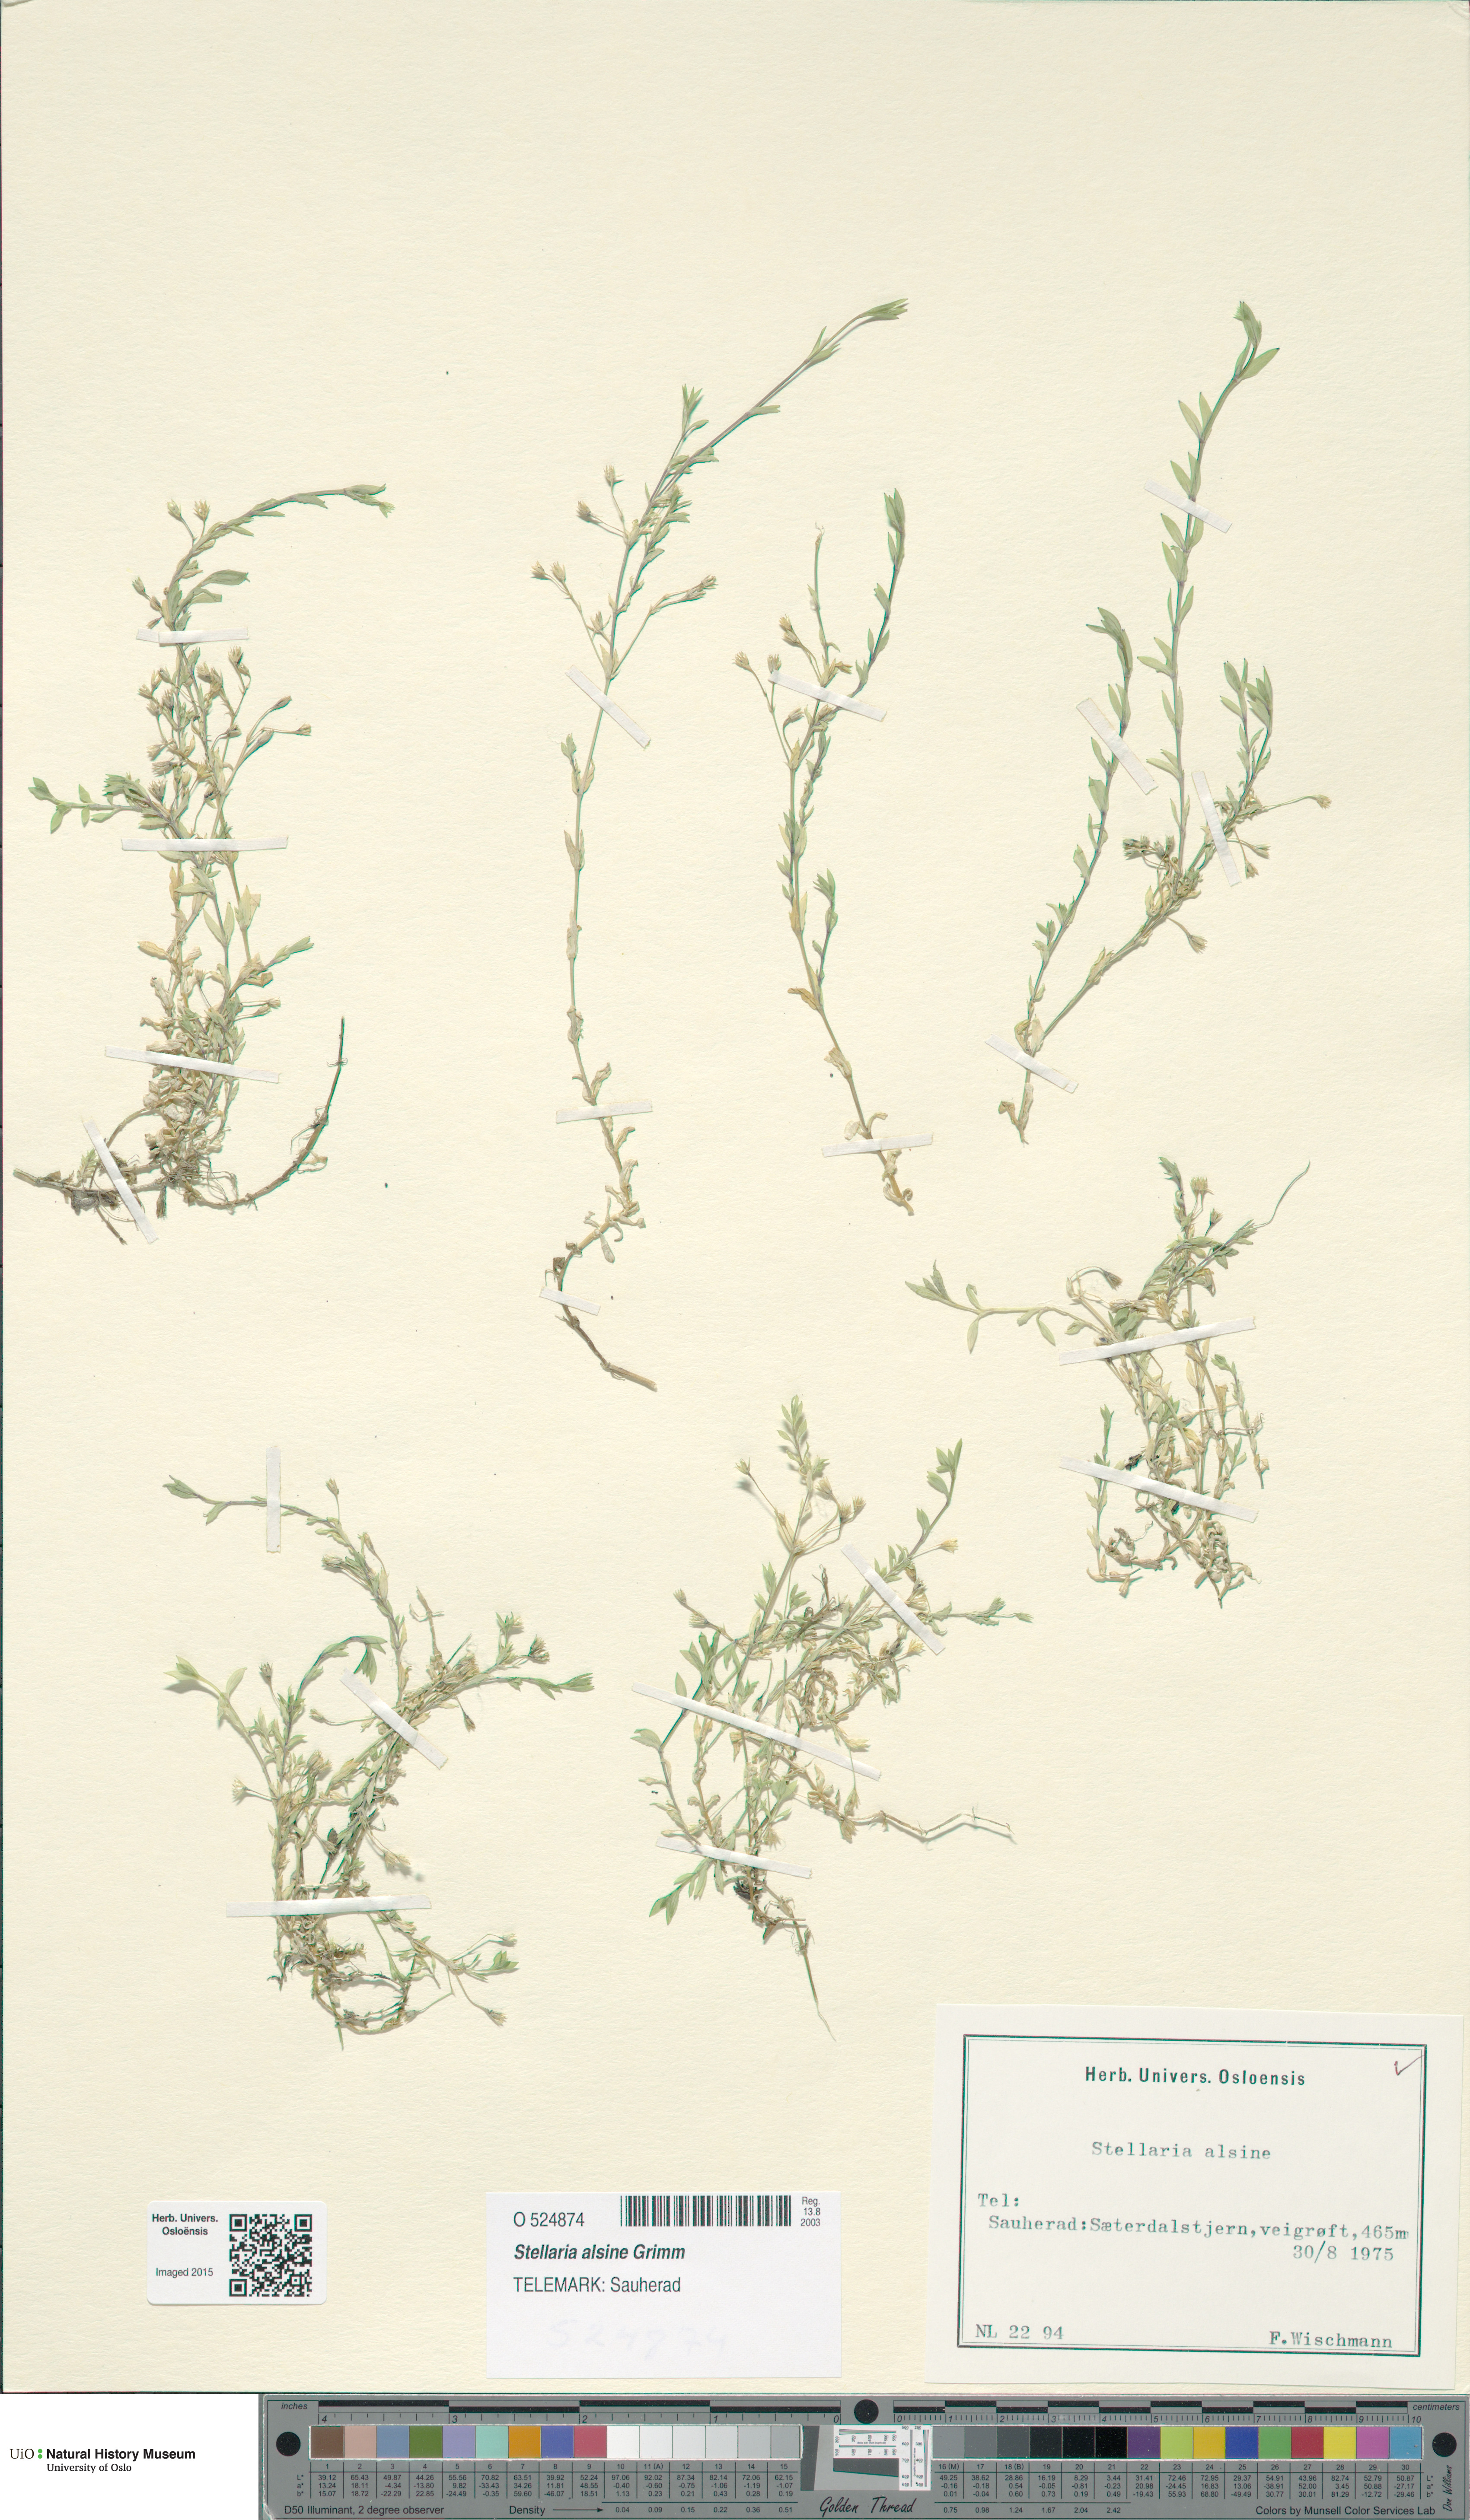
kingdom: Plantae
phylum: Tracheophyta
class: Magnoliopsida
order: Caryophyllales
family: Caryophyllaceae
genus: Stellaria
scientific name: Stellaria alsine
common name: Bog stitchwort
